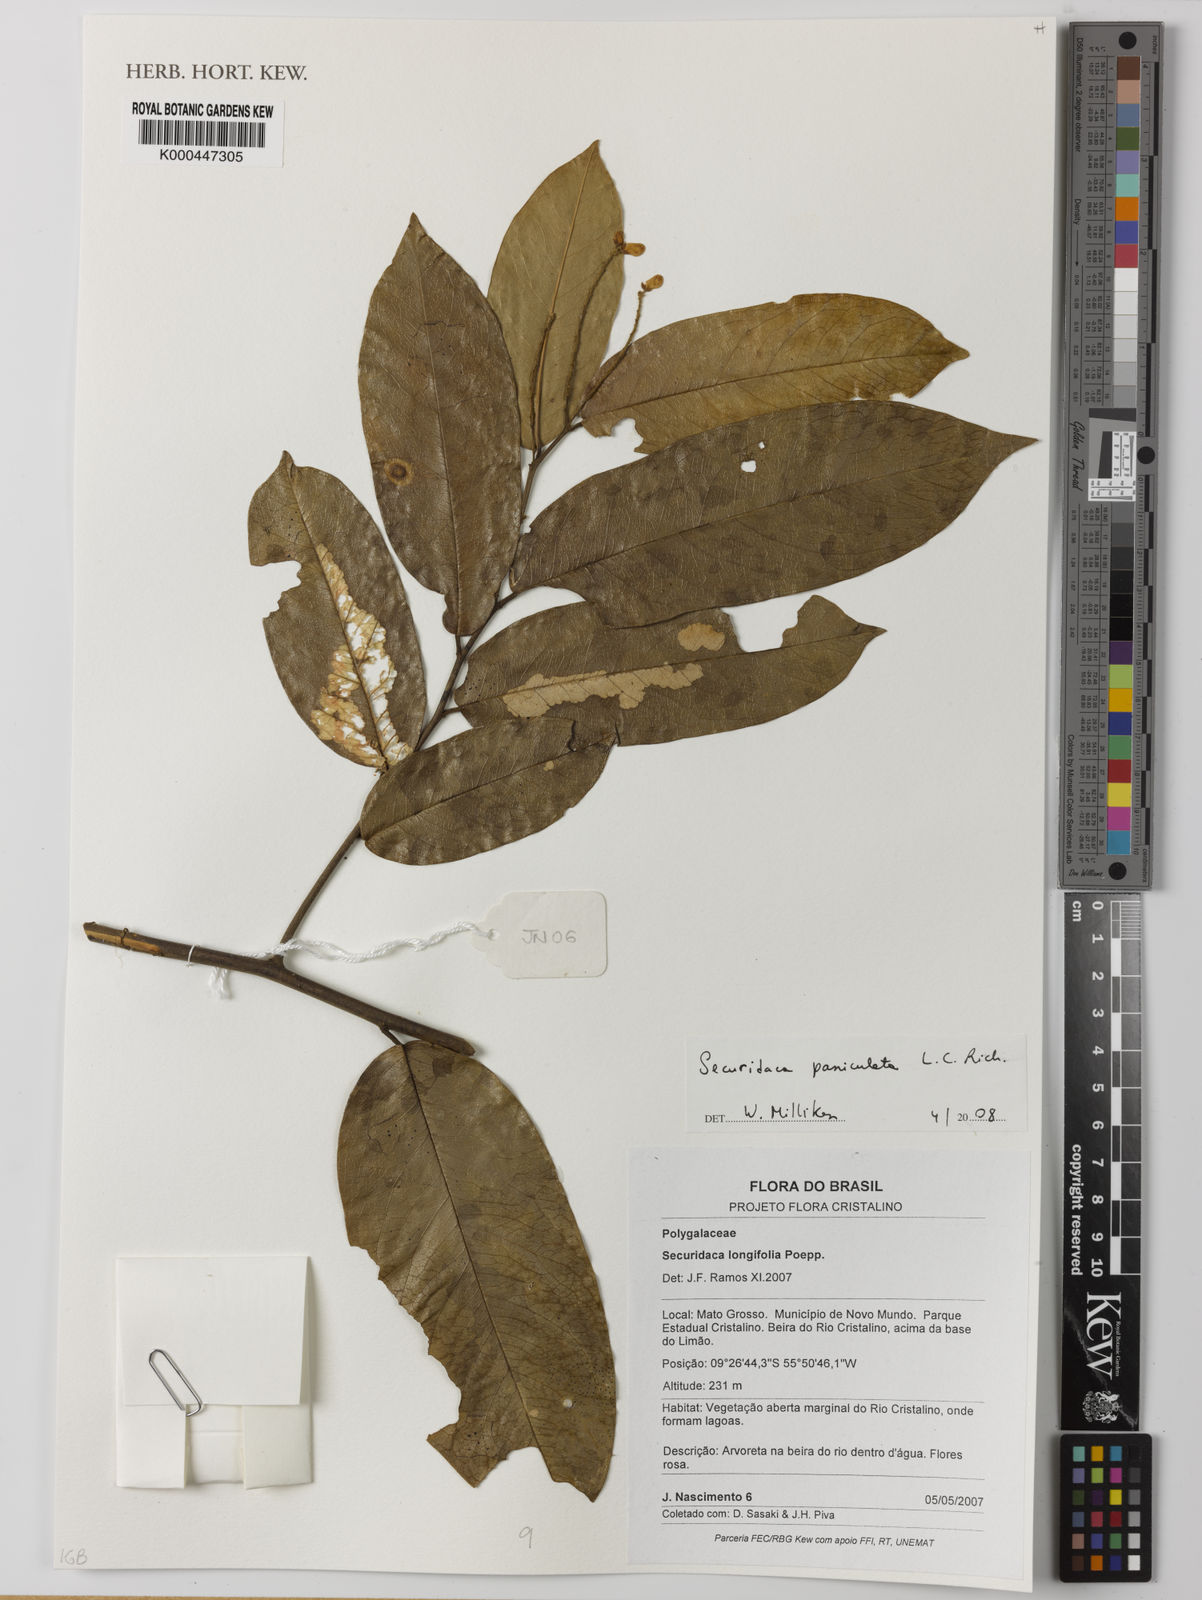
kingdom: Plantae
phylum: Tracheophyta
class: Magnoliopsida
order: Fabales
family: Polygalaceae
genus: Securidaca
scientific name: Securidaca paniculata
